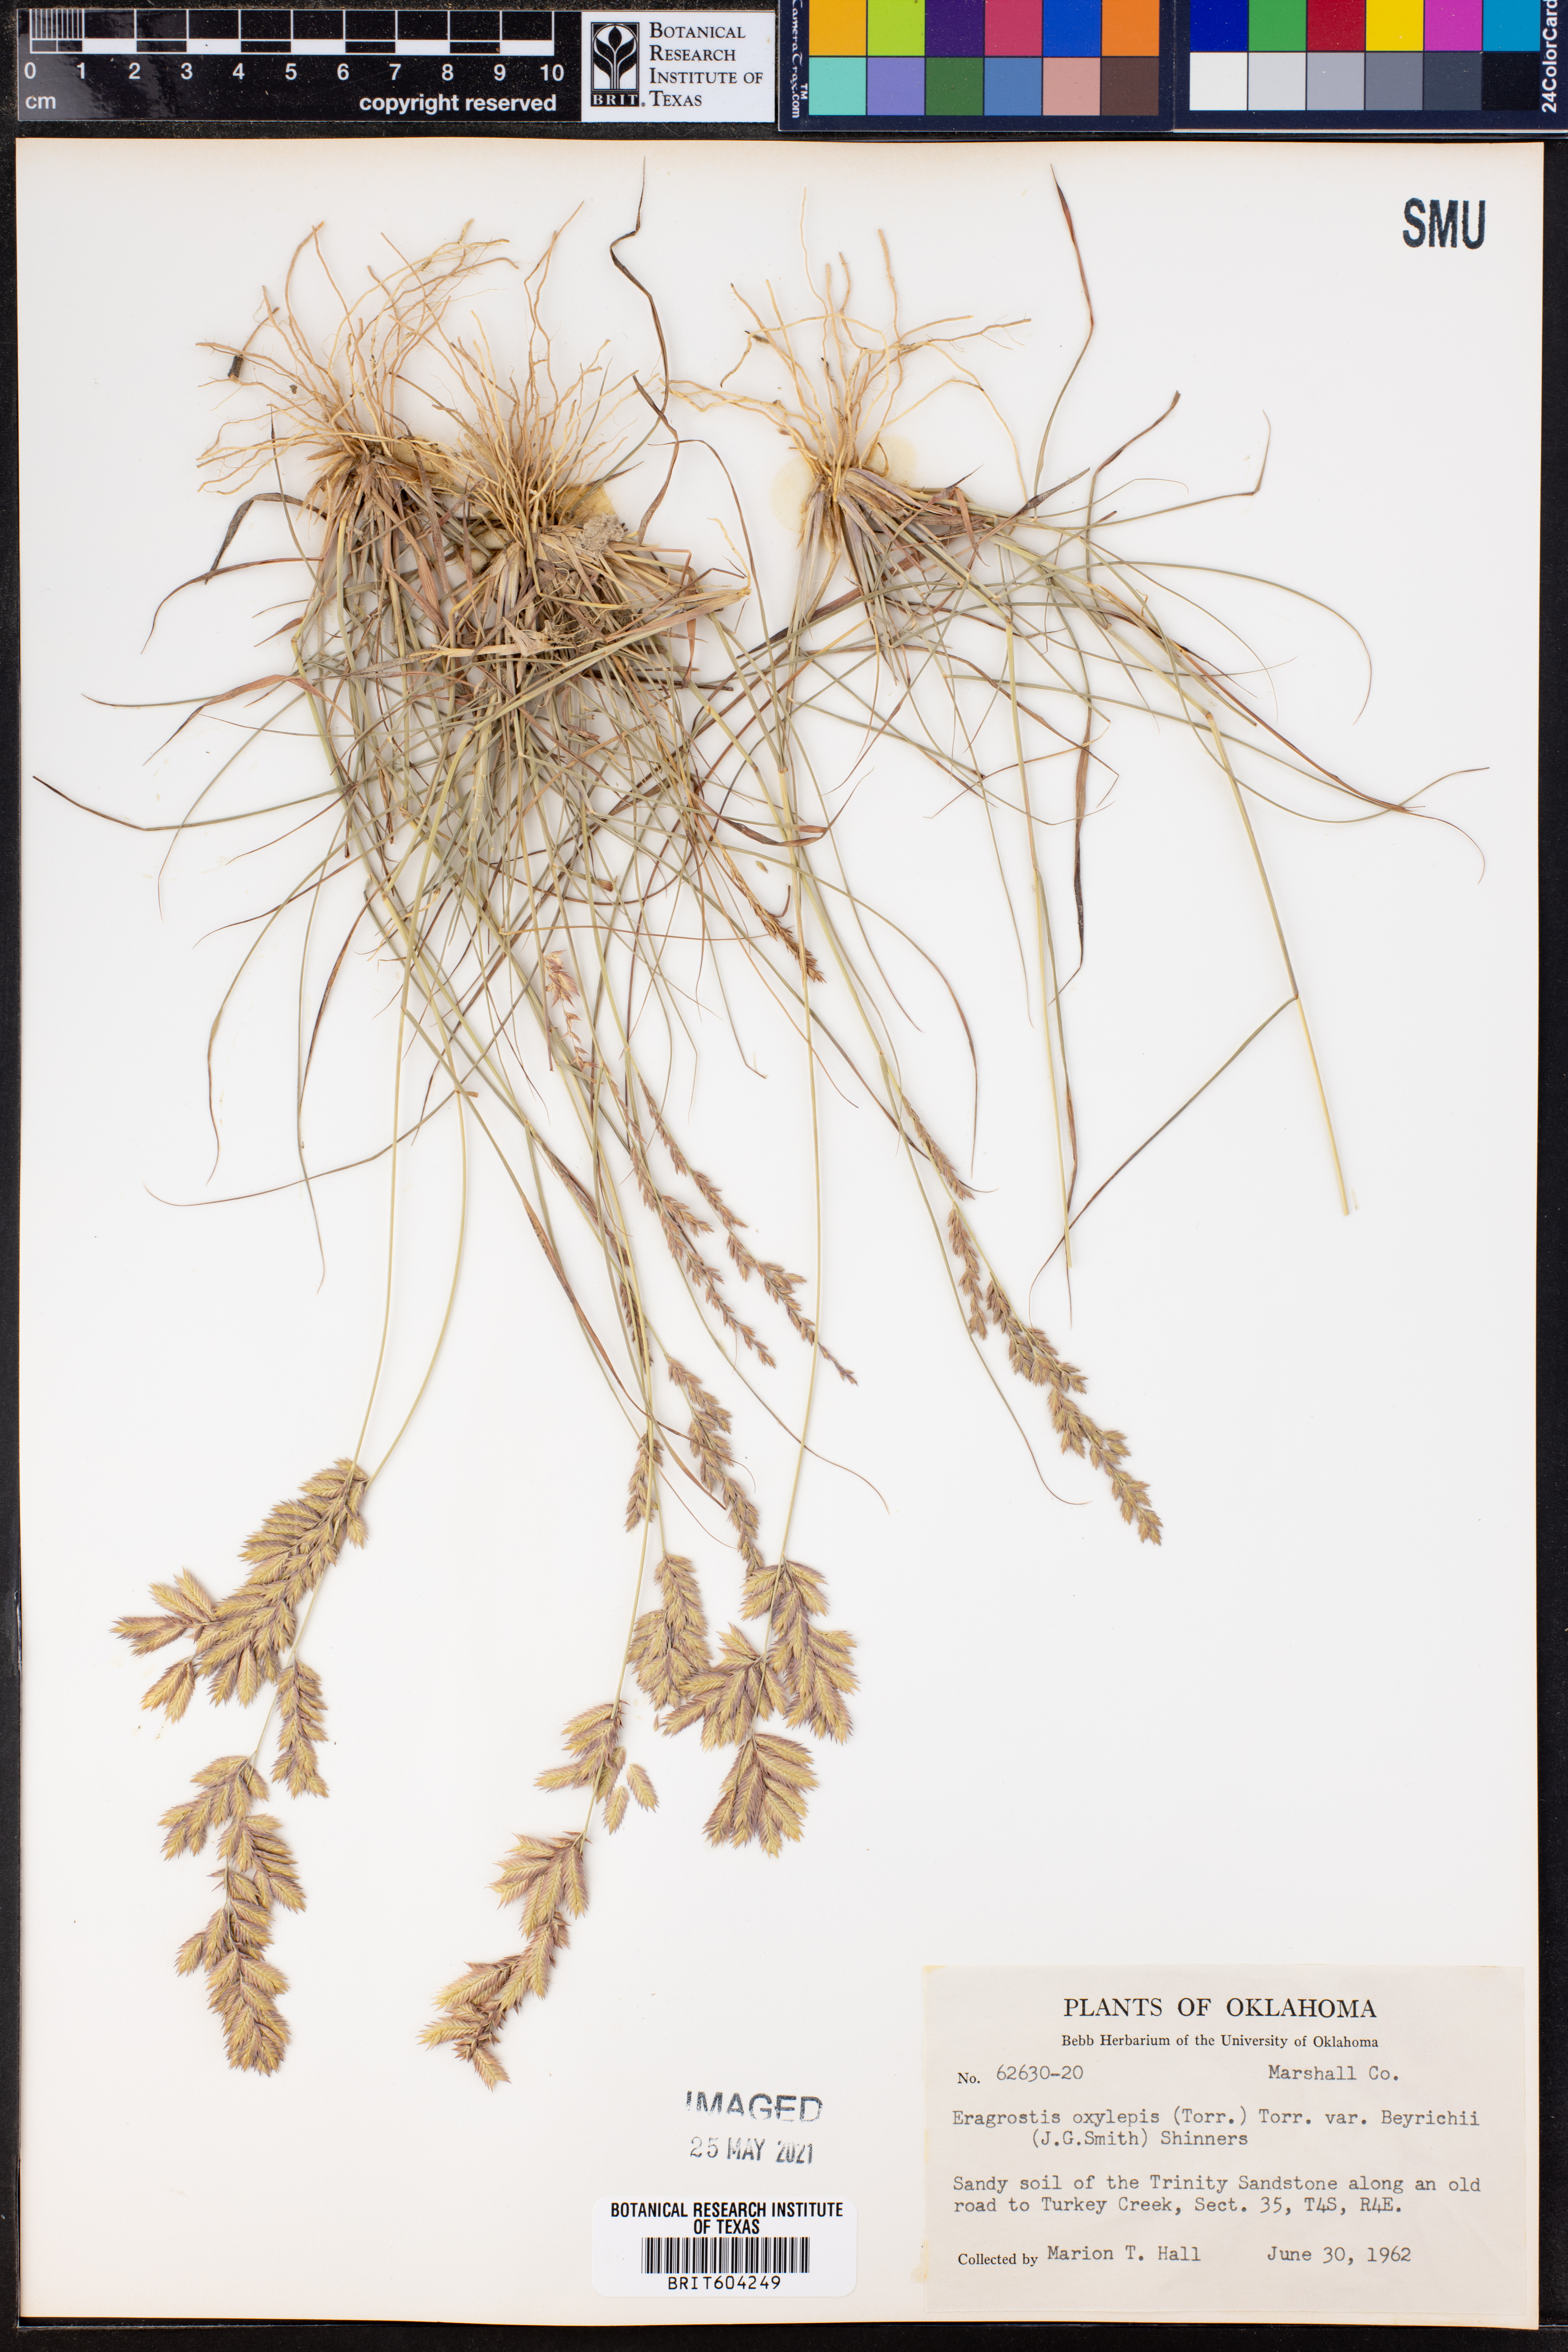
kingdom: Plantae
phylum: Tracheophyta
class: Liliopsida
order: Poales
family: Poaceae
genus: Eragrostis
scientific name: Eragrostis secundiflora
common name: Red love grass
